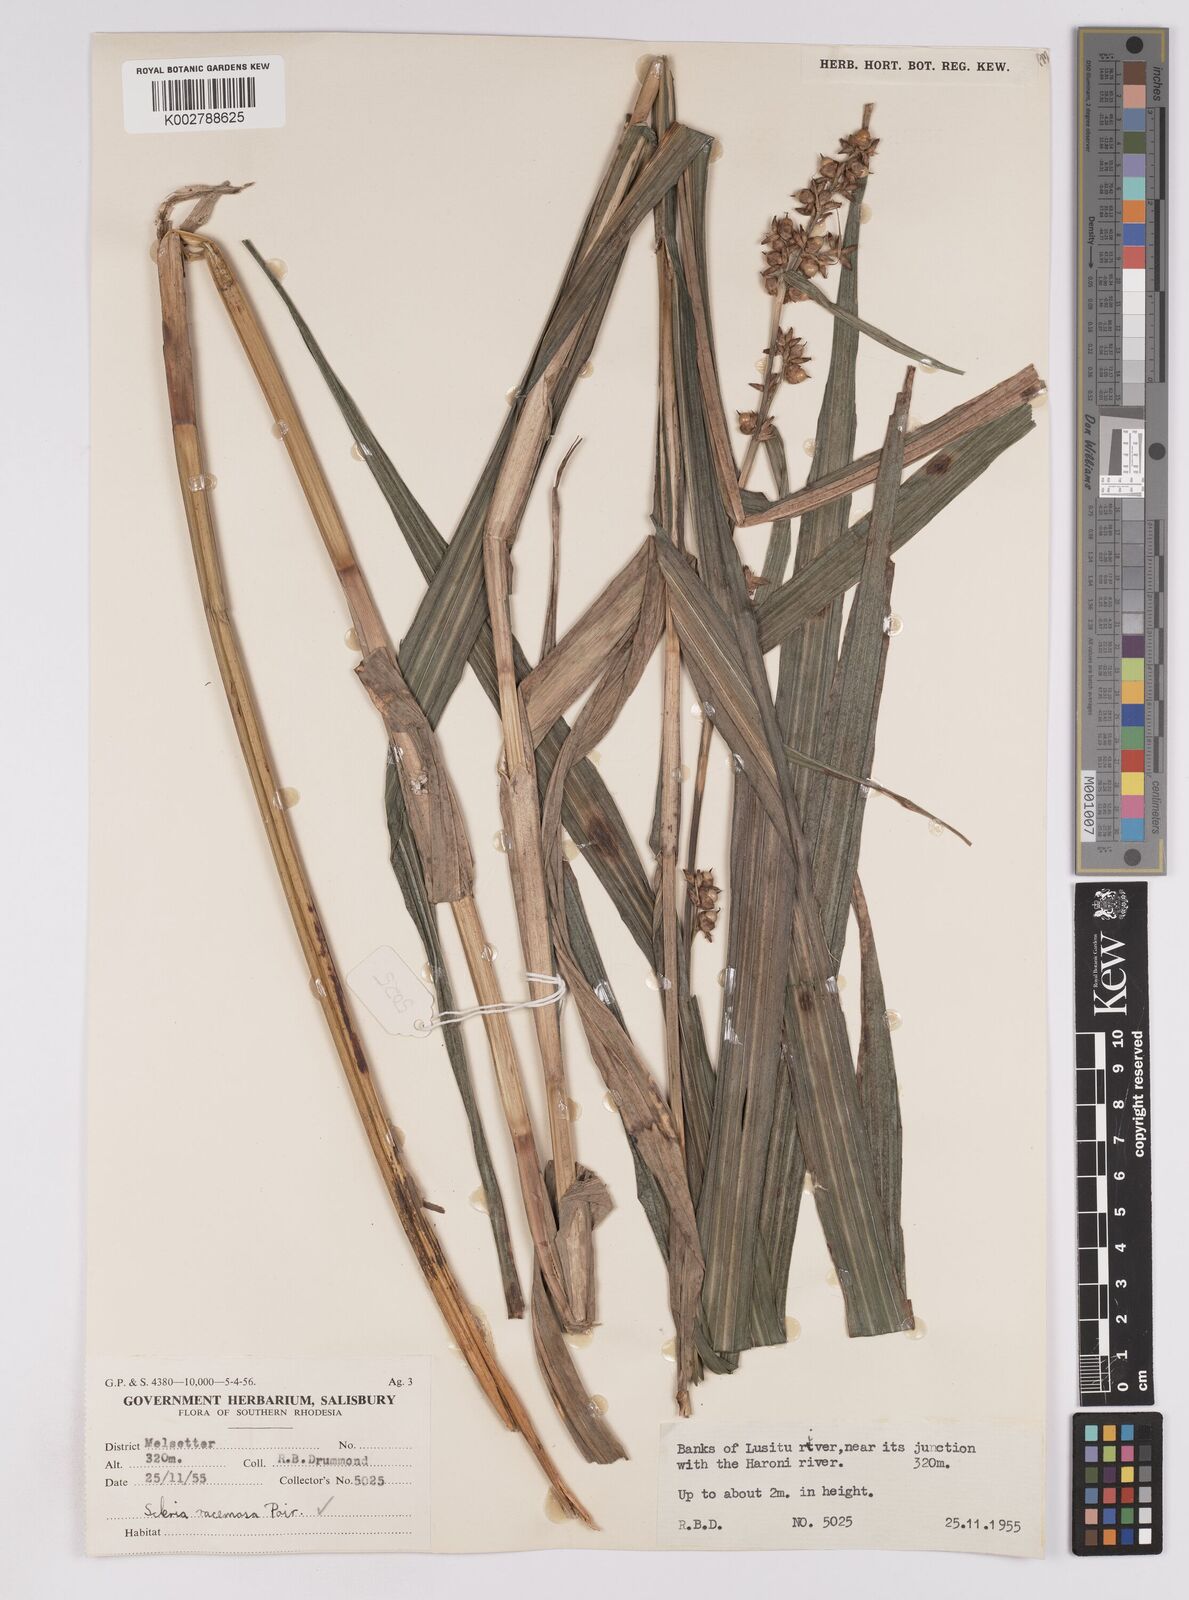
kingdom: Plantae
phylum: Tracheophyta
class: Liliopsida
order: Poales
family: Cyperaceae
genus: Scleria
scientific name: Scleria racemosa
